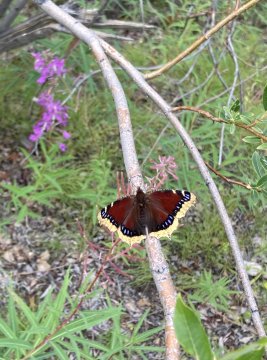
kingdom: Animalia
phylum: Arthropoda
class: Insecta
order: Lepidoptera
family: Nymphalidae
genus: Nymphalis
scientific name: Nymphalis antiopa
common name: Mourning Cloak
